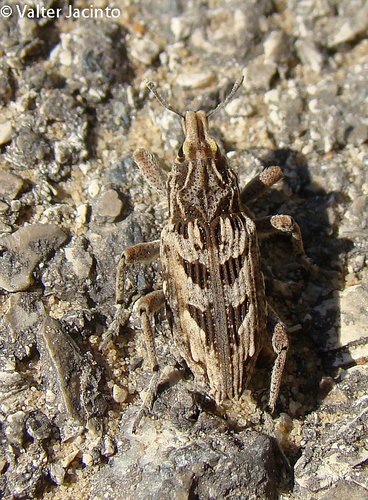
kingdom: Animalia
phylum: Arthropoda
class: Insecta
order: Coleoptera
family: Curculionidae
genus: Coniocleonus
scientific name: Coniocleonus excoriatus
